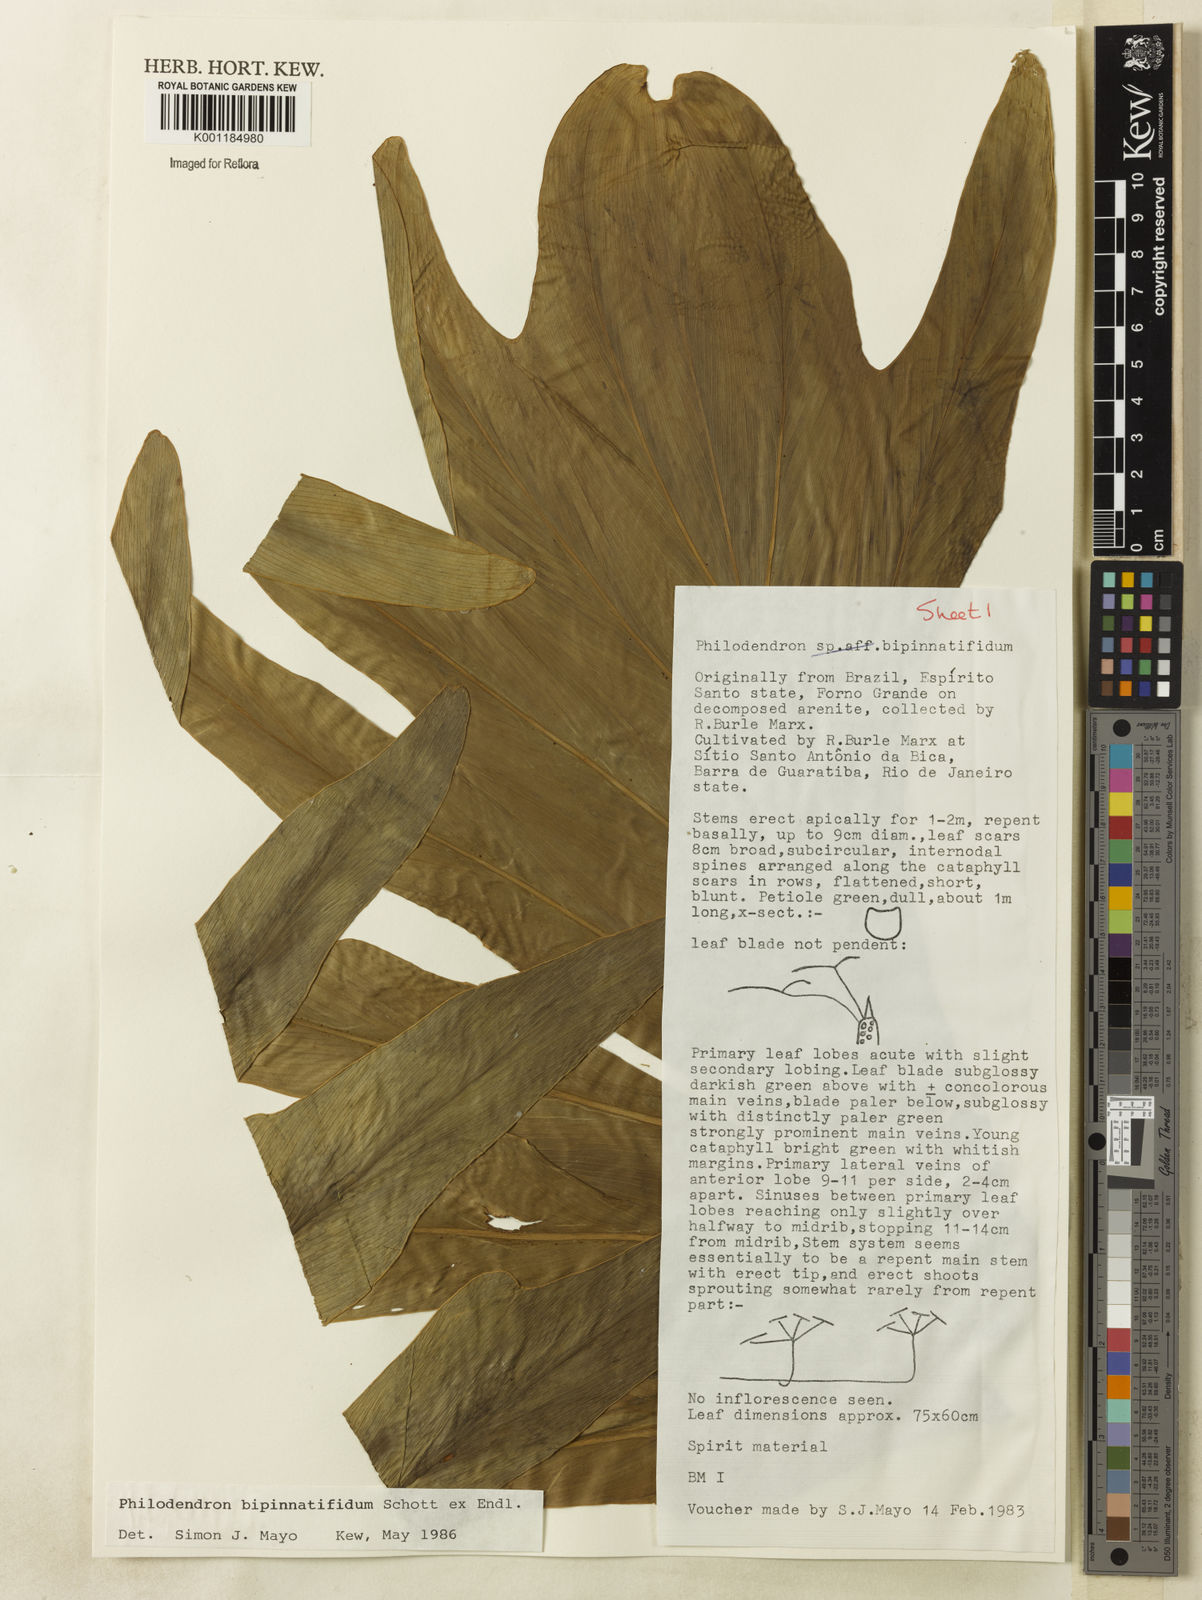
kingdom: Plantae
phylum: Tracheophyta
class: Liliopsida
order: Alismatales
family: Araceae
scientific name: Araceae
